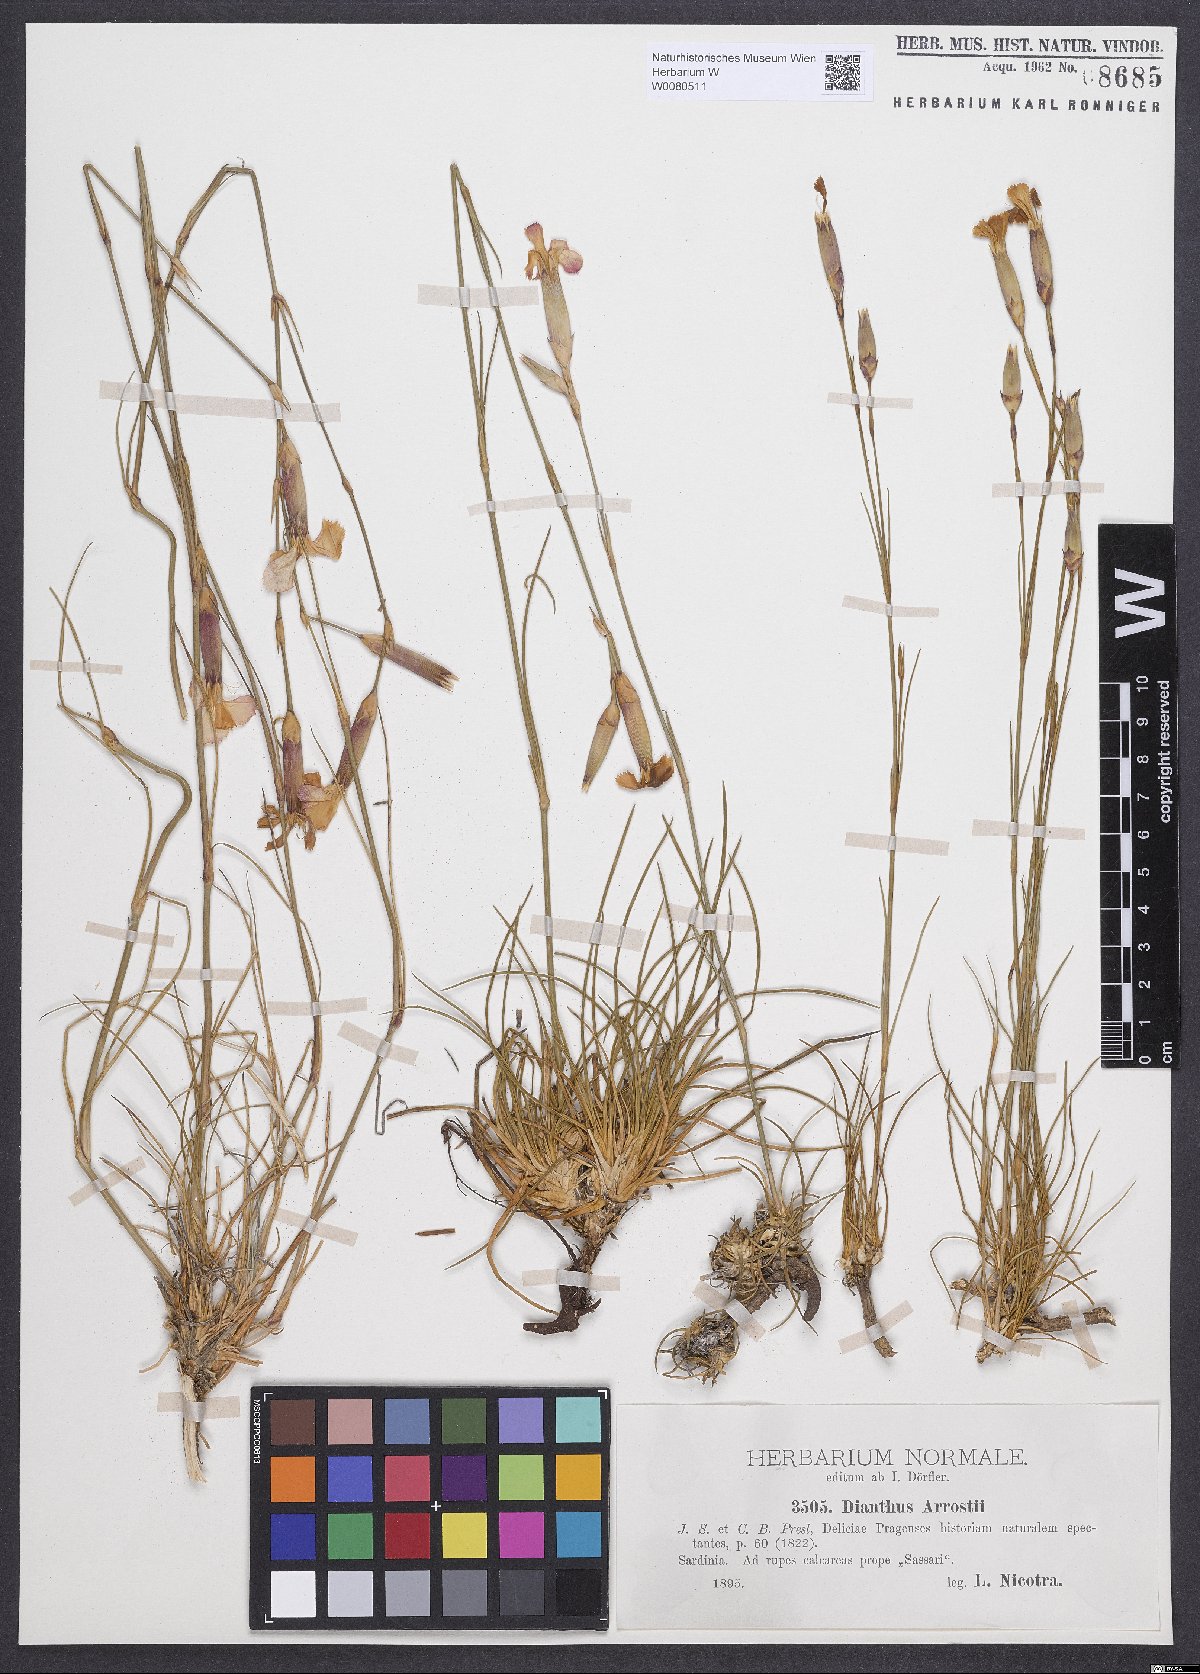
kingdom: Plantae
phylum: Tracheophyta
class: Magnoliopsida
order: Caryophyllales
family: Caryophyllaceae
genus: Dianthus
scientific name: Dianthus arrostii
